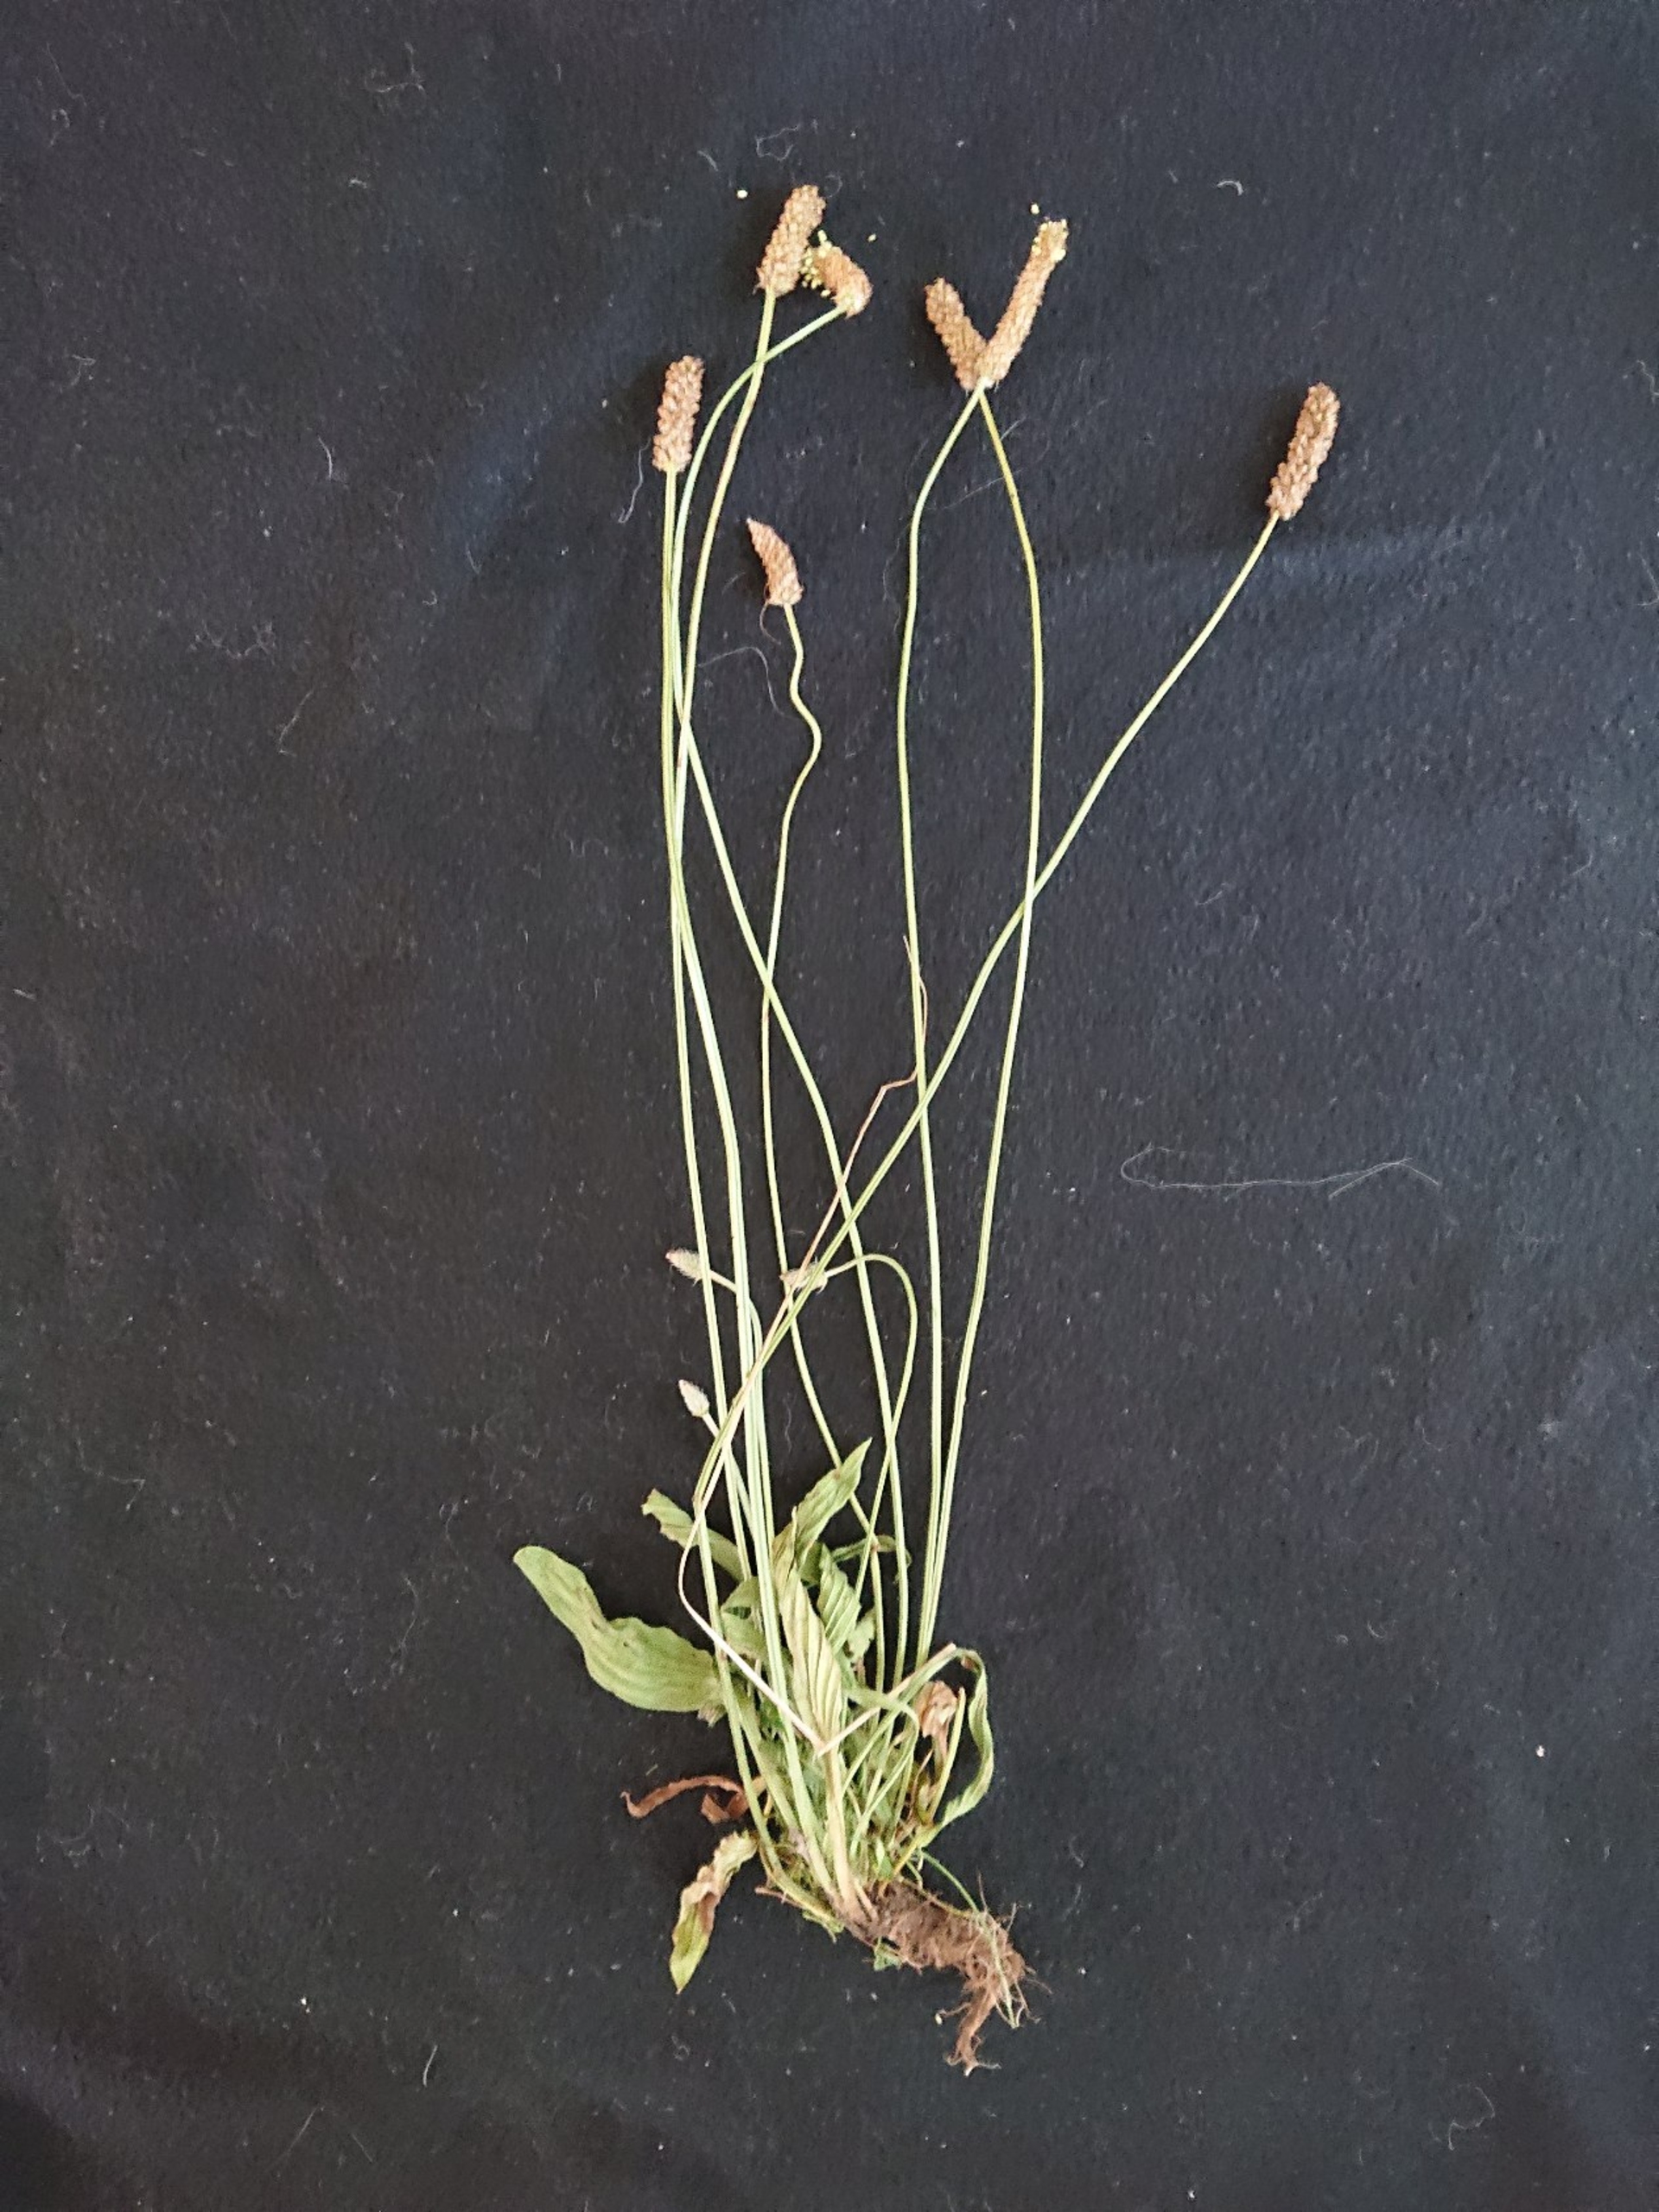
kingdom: Plantae
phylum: Tracheophyta
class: Magnoliopsida
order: Lamiales
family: Plantaginaceae
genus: Plantago
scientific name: Plantago lanceolata
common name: Lancet-vejbred
